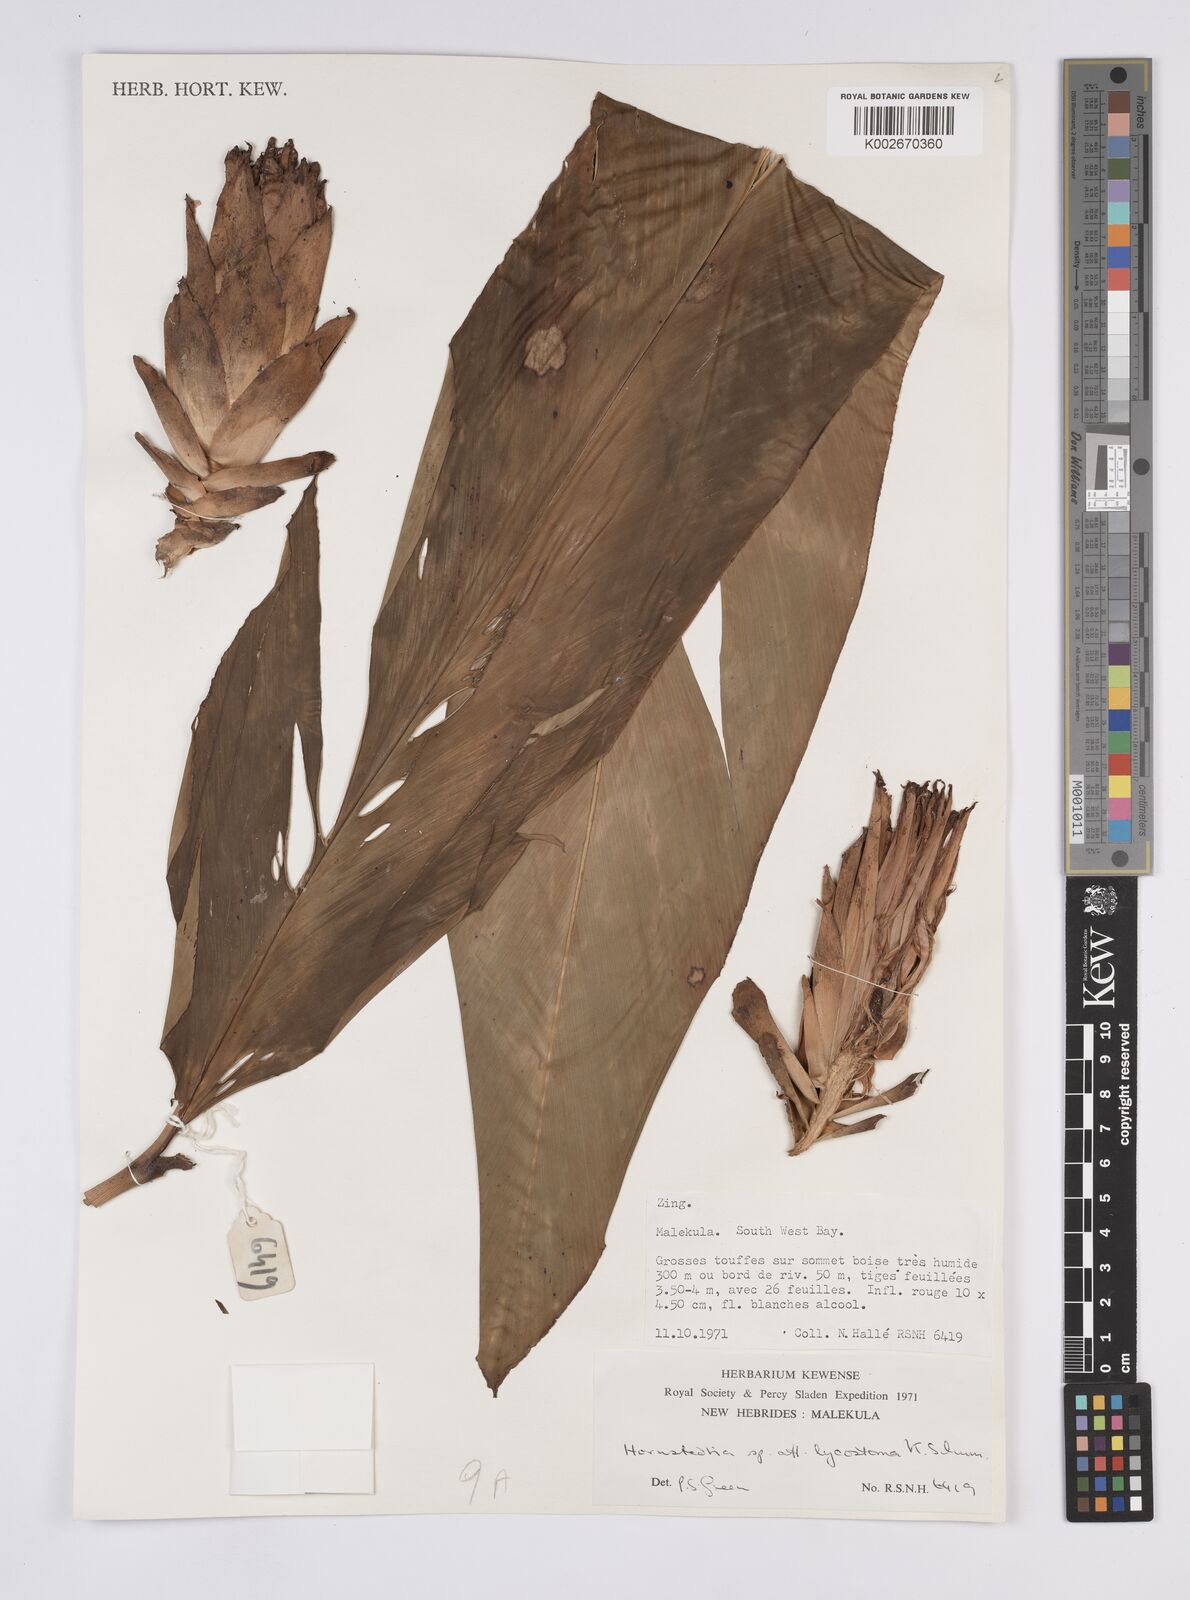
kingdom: Plantae
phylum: Tracheophyta
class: Liliopsida
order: Zingiberales
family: Zingiberaceae
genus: Hornstedtia
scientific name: Hornstedtia scottiana
